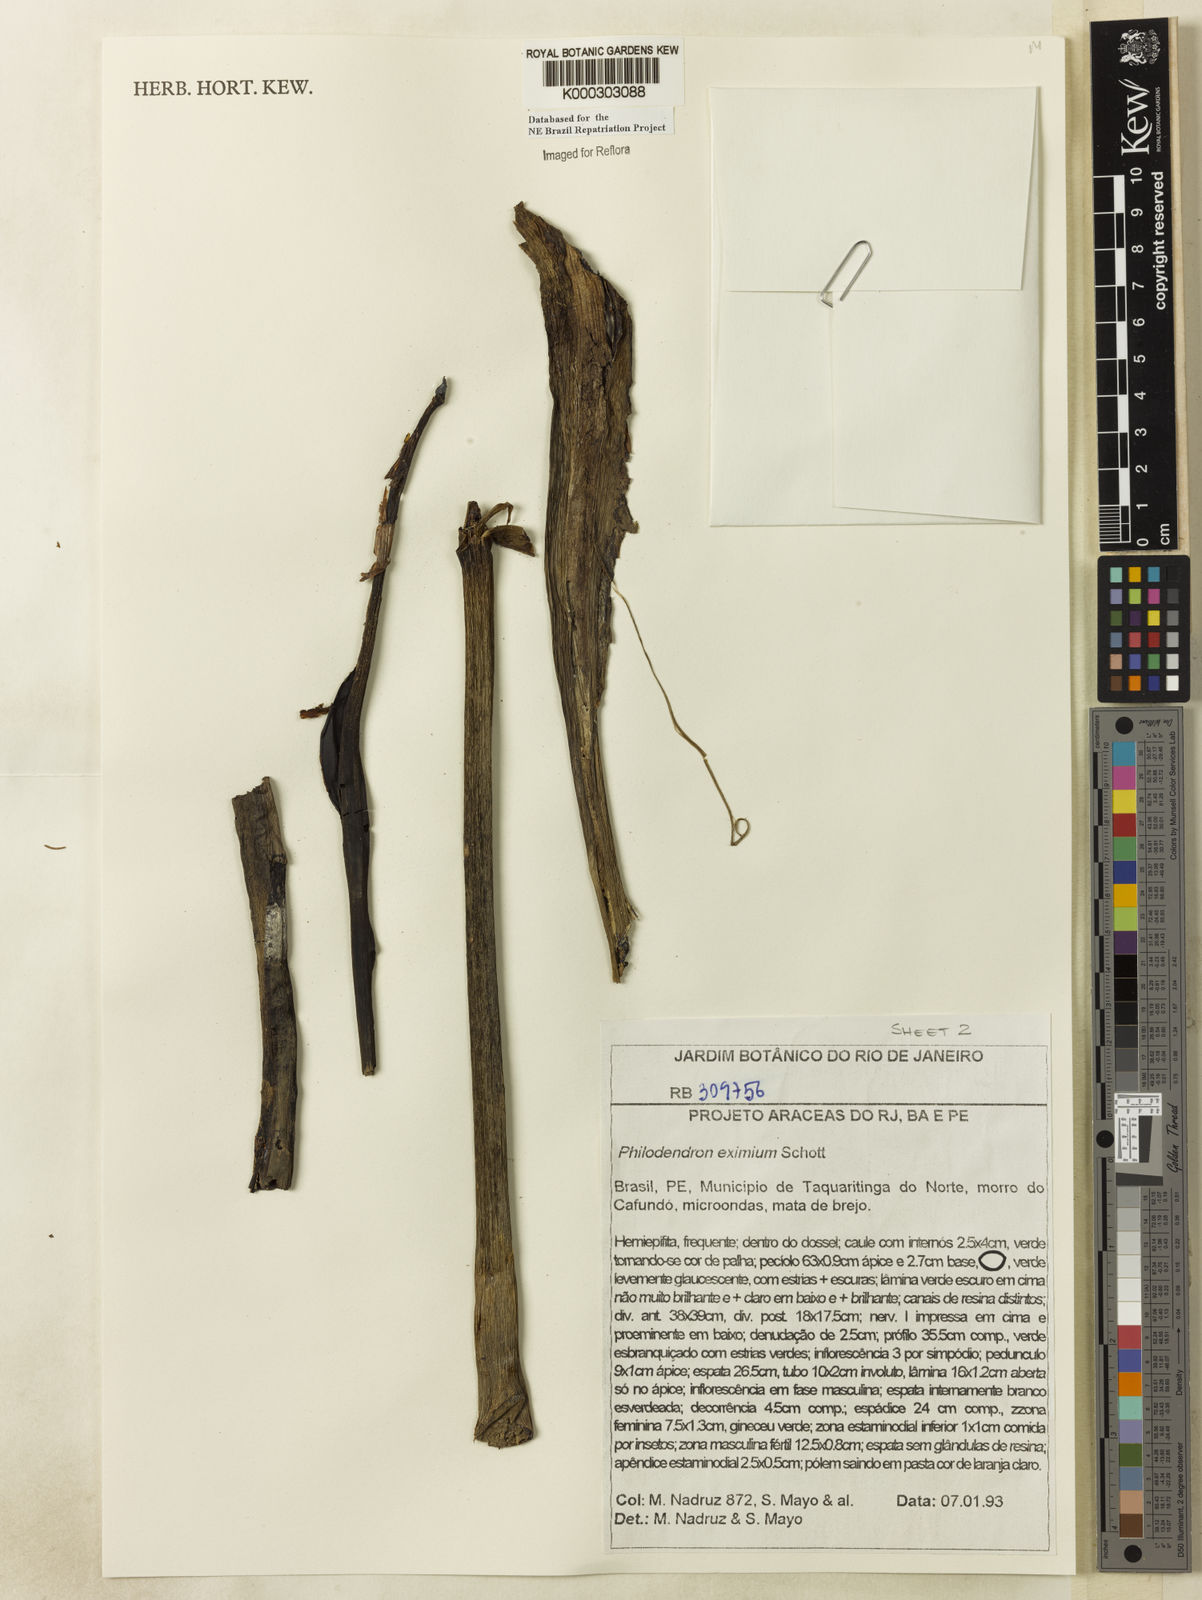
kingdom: Plantae
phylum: Tracheophyta
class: Liliopsida
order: Alismatales
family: Araceae
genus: Philodendron
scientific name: Philodendron eximium
